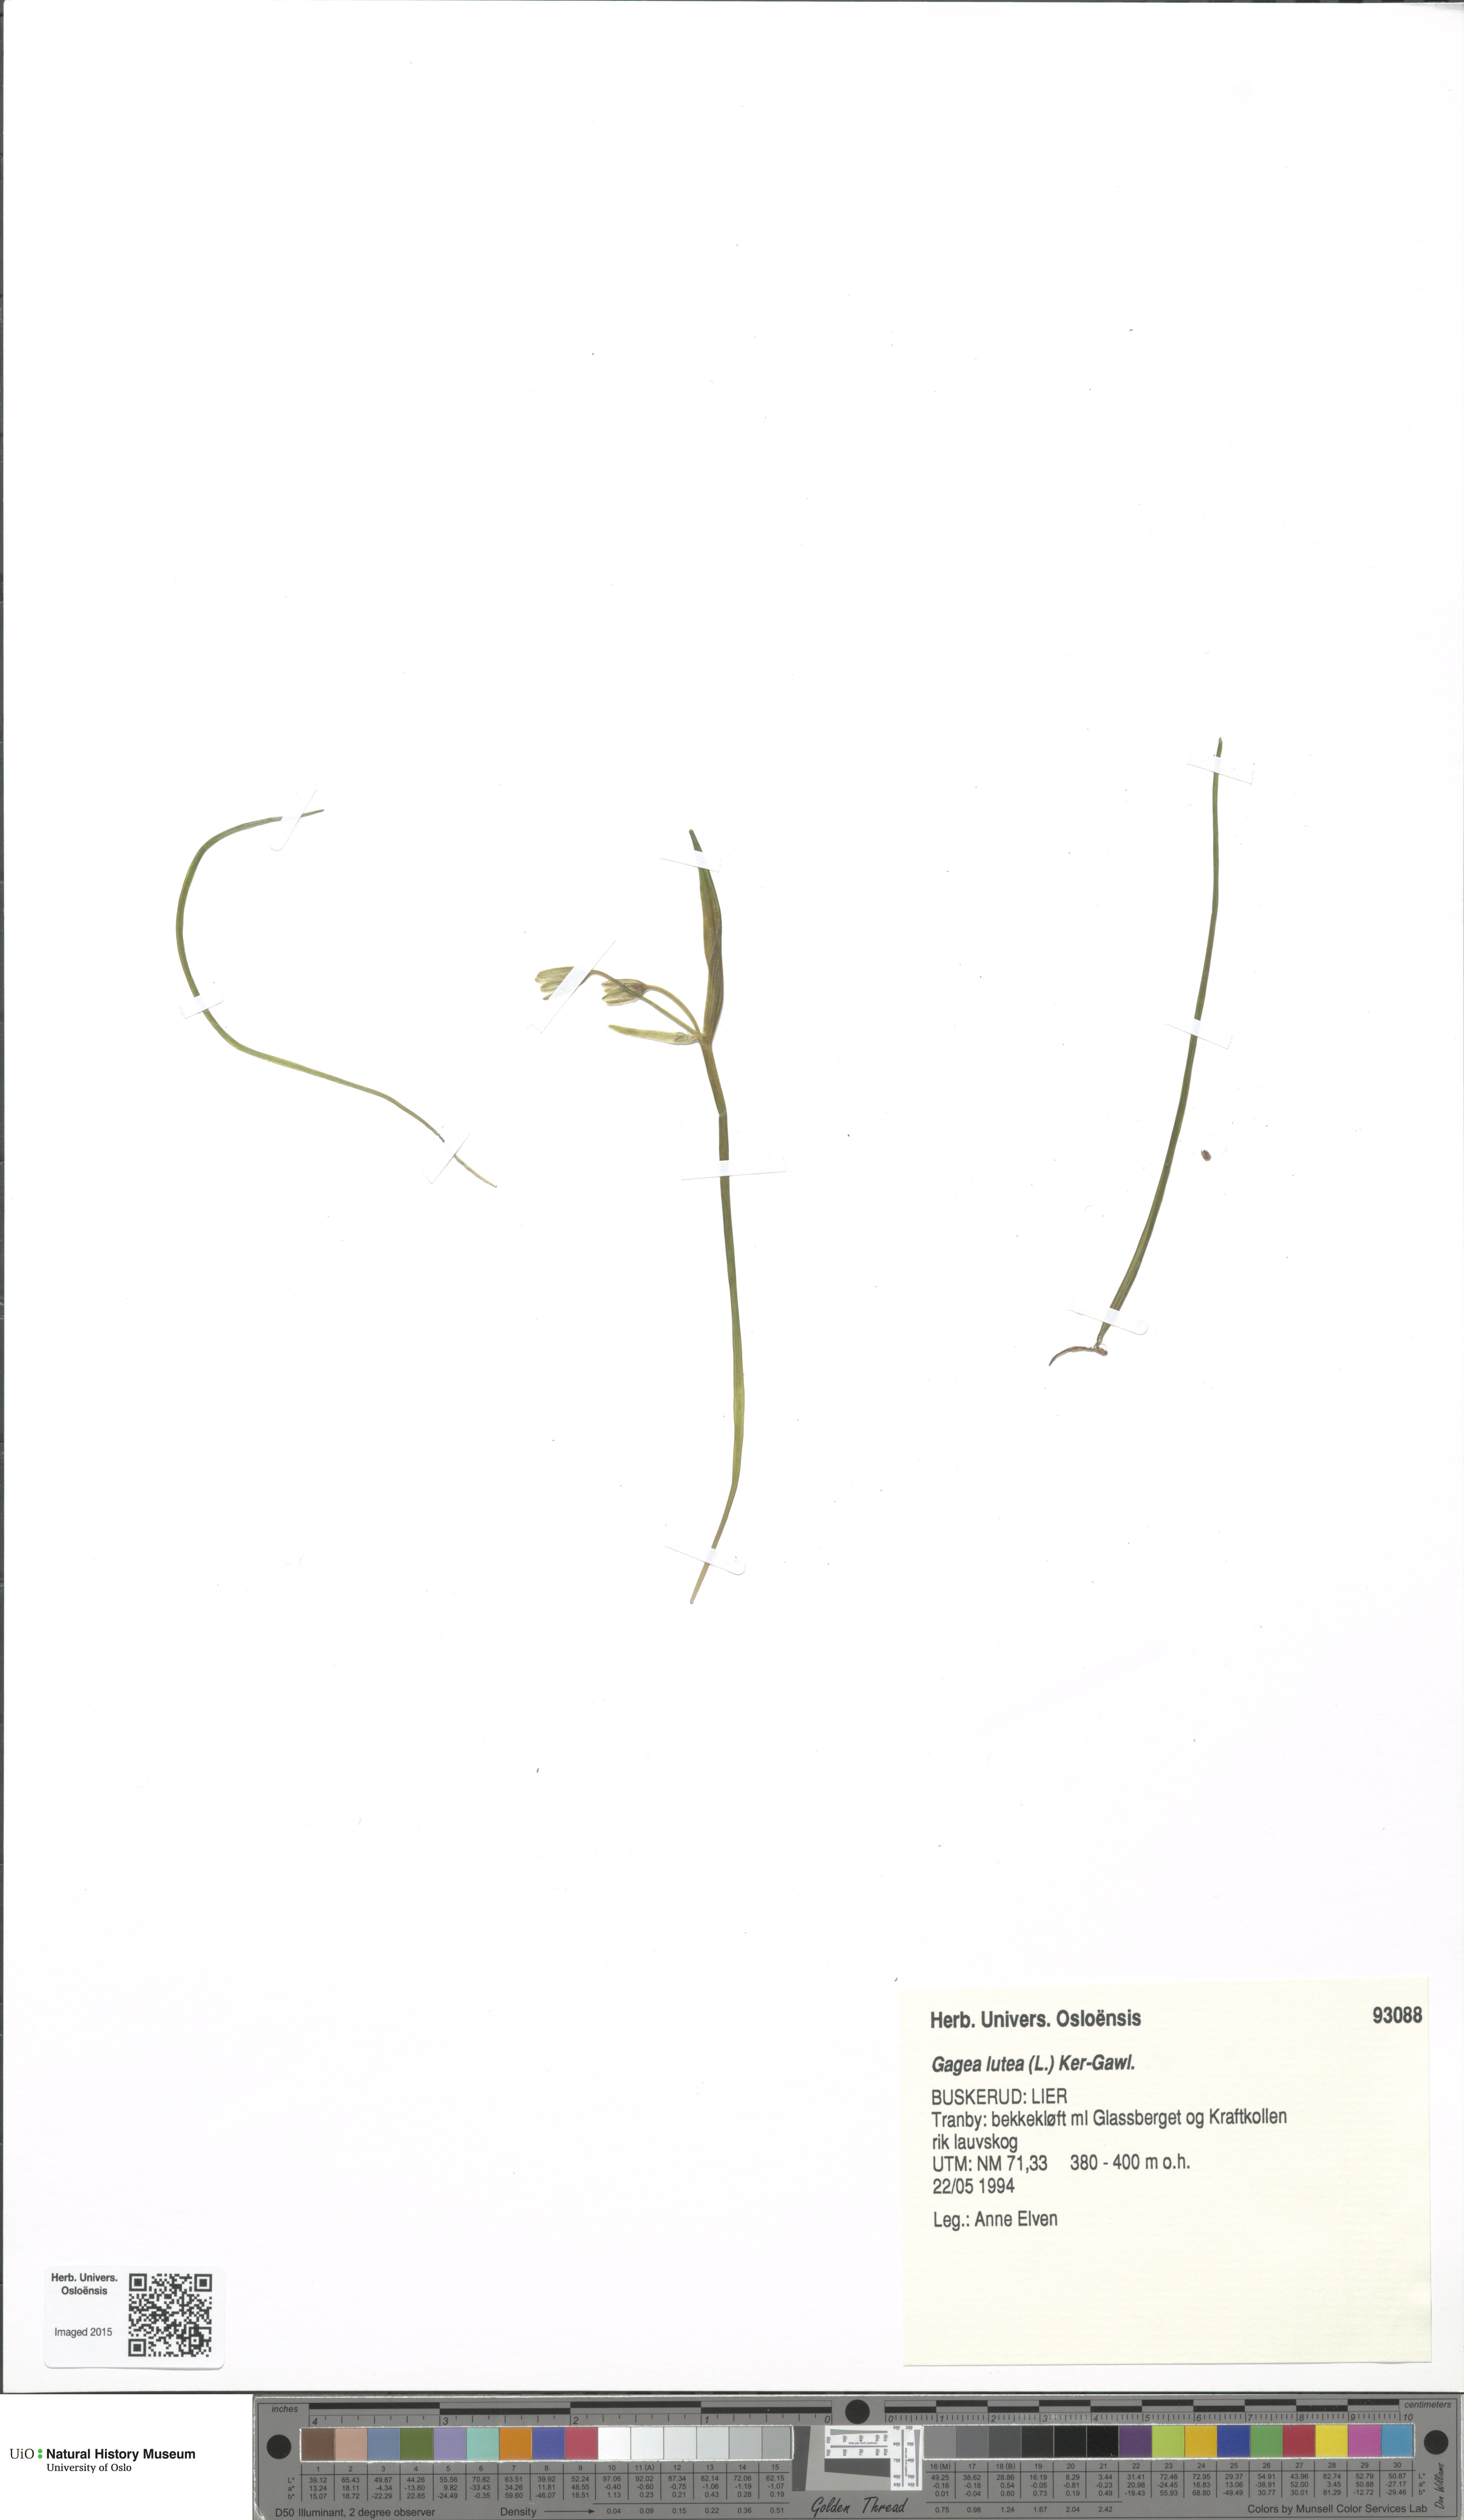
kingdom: Plantae
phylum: Tracheophyta
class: Liliopsida
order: Liliales
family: Liliaceae
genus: Gagea
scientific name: Gagea lutea
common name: Yellow star-of-bethlehem
